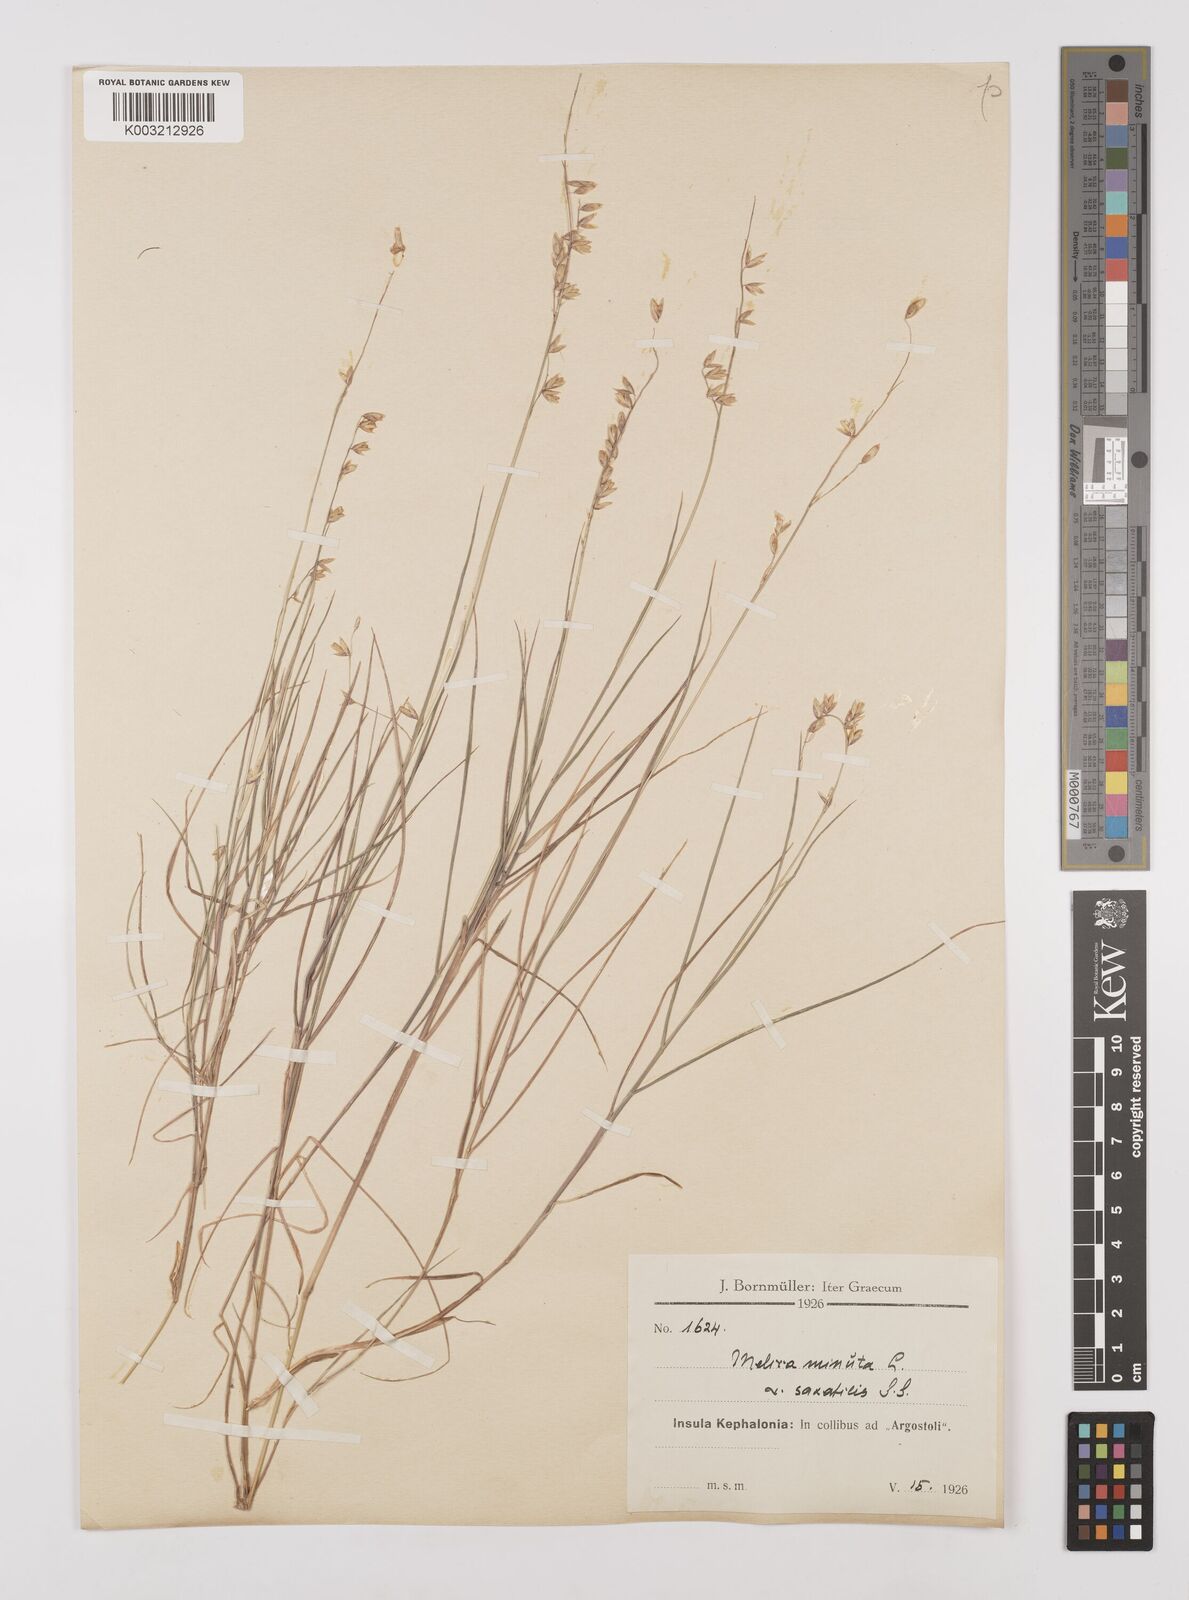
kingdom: Plantae
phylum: Tracheophyta
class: Liliopsida
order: Poales
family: Poaceae
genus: Melica
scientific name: Melica minuta
